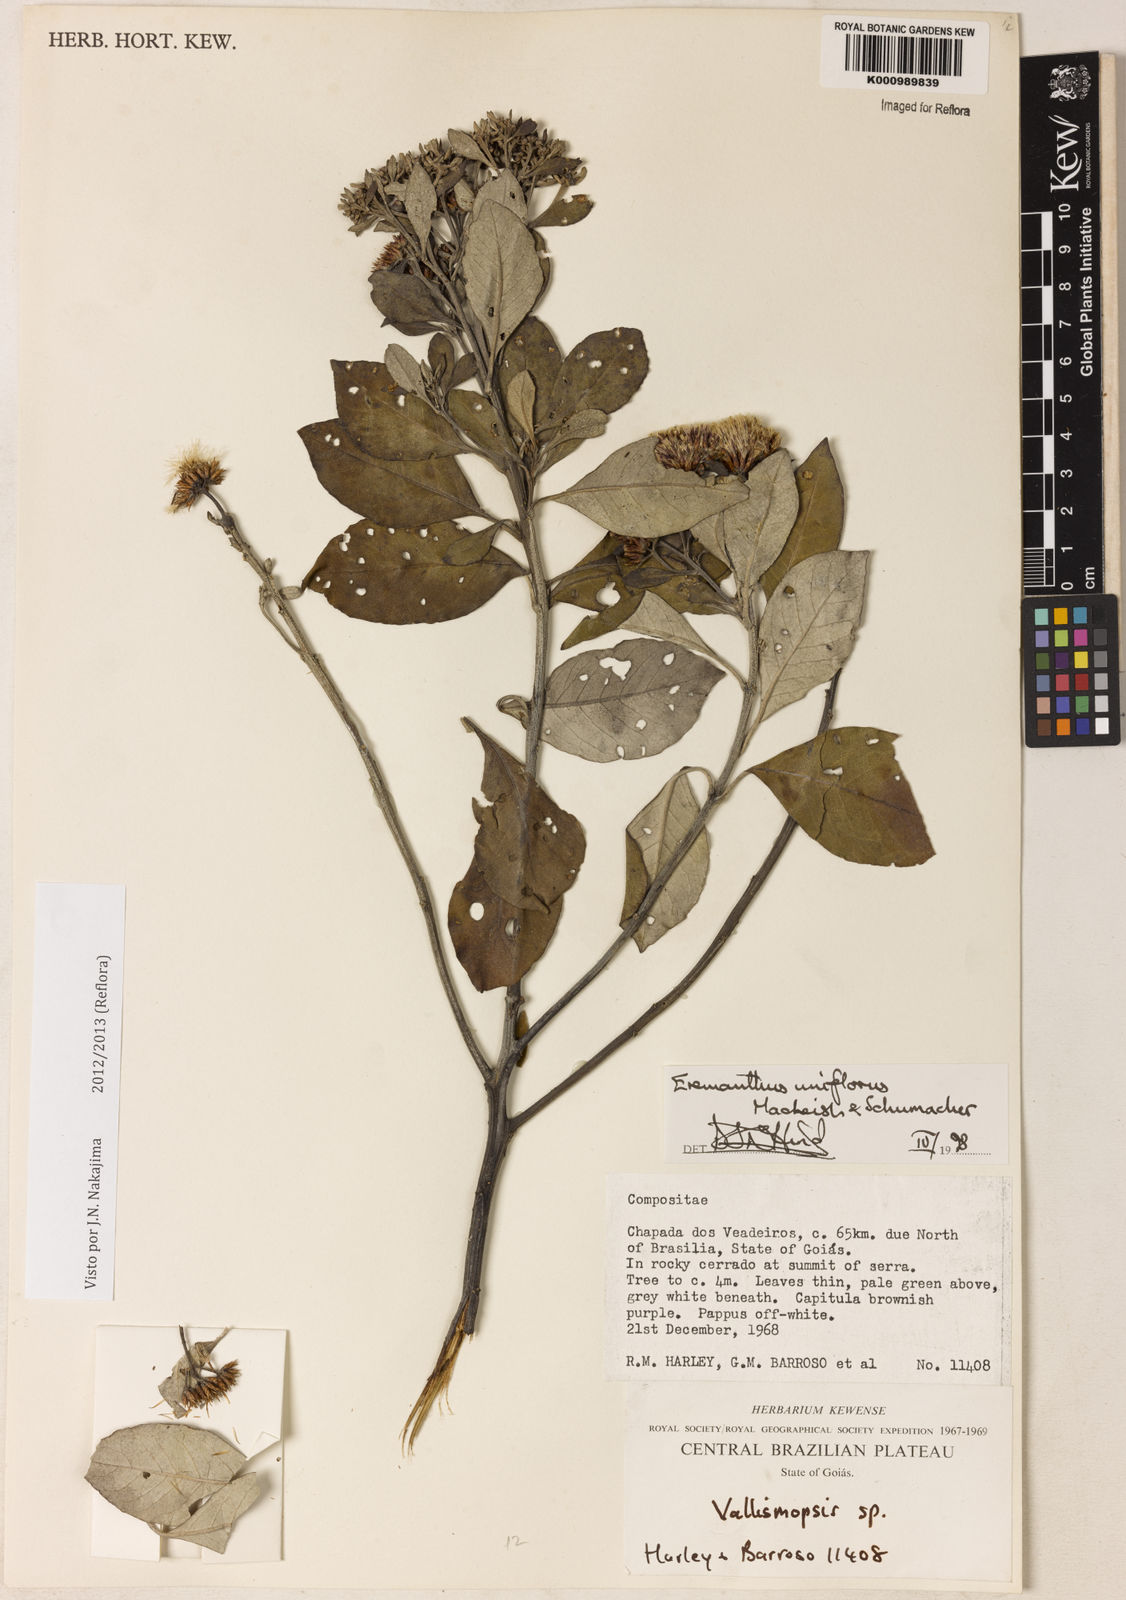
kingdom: Plantae
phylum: Tracheophyta
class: Magnoliopsida
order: Asterales
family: Asteraceae
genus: Eremanthus
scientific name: Eremanthus uniflorus
